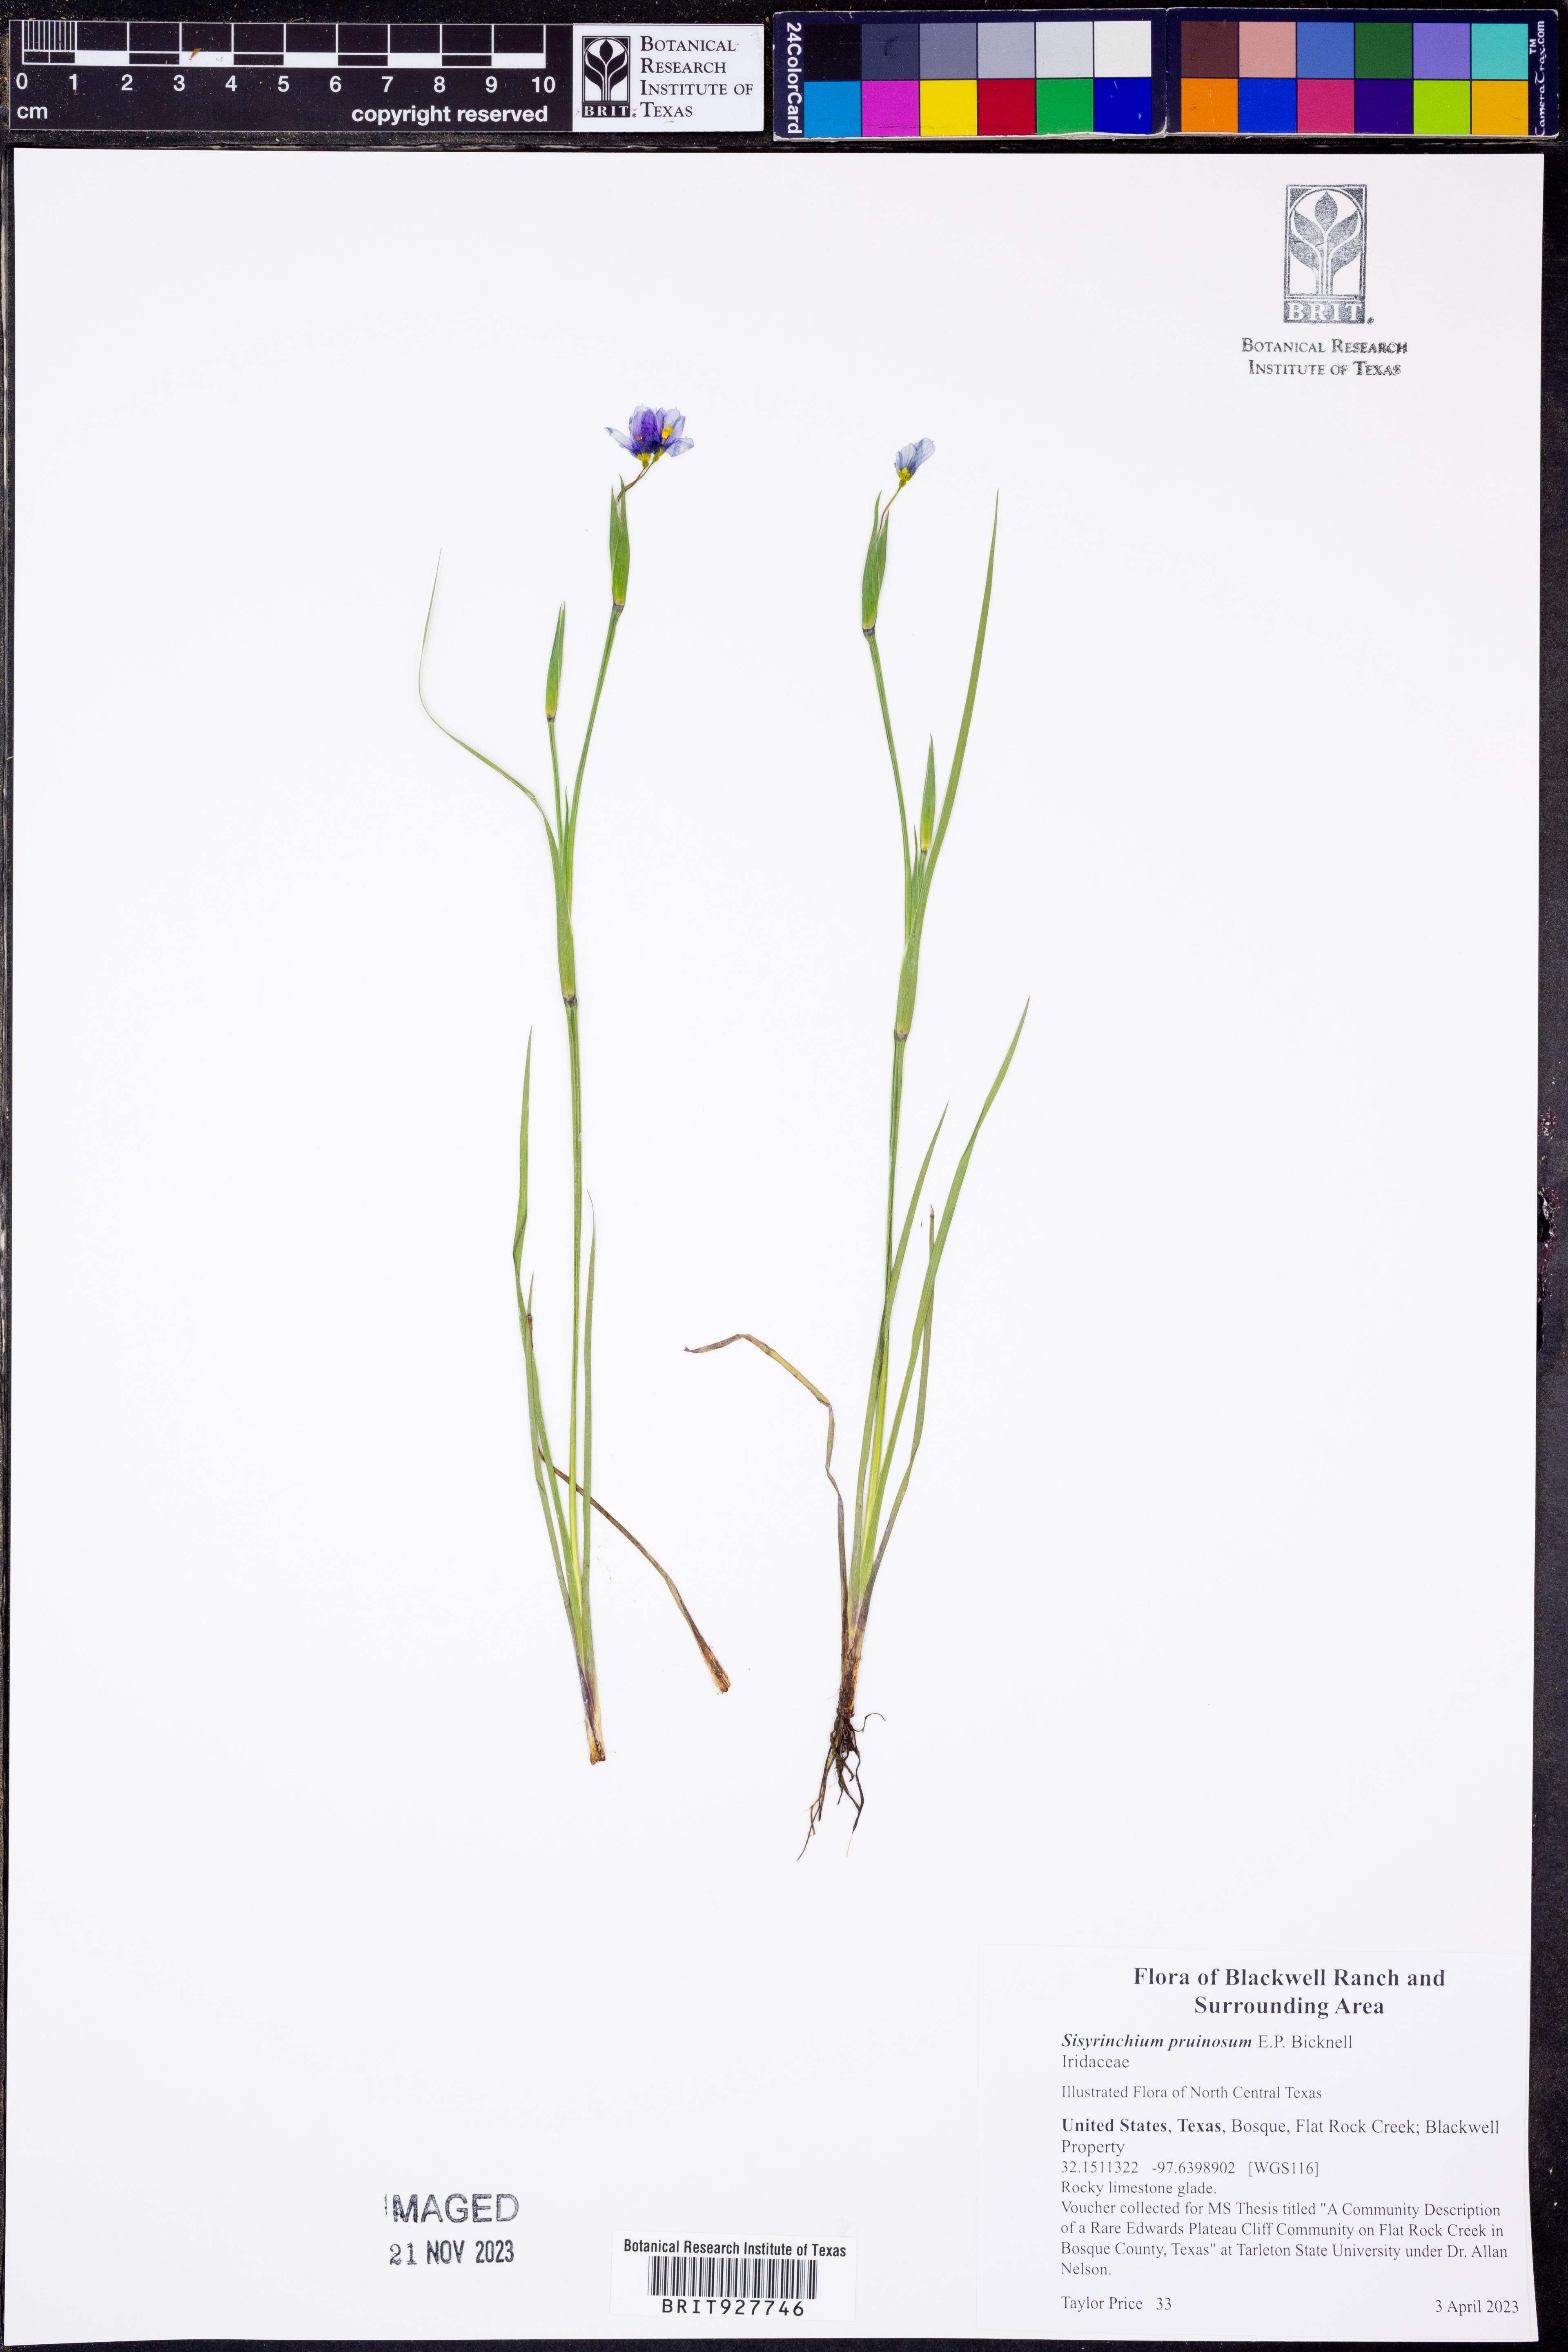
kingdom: Plantae
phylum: Tracheophyta
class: Liliopsida
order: Asparagales
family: Iridaceae
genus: Sisyrinchium
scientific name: Sisyrinchium pruinosum
